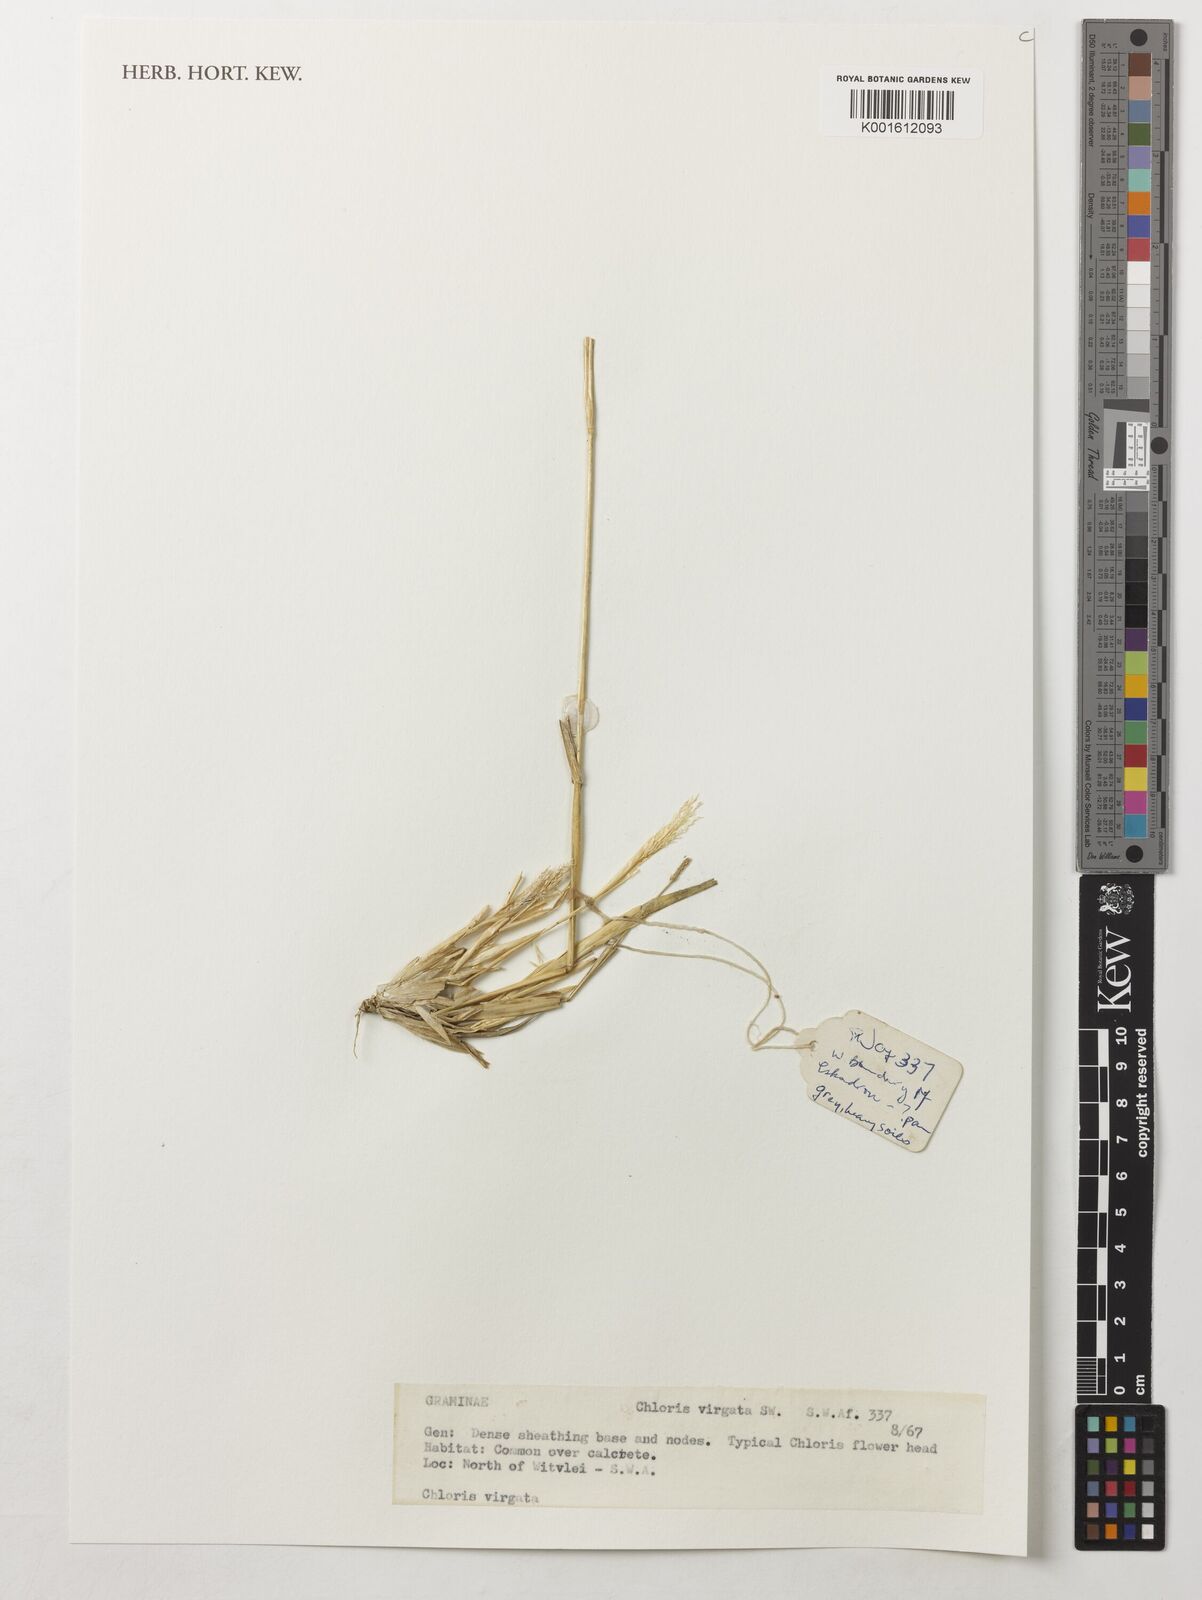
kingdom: Plantae
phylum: Tracheophyta
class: Liliopsida
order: Poales
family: Poaceae
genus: Chloris
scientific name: Chloris virgata
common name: Feathery rhodes-grass
